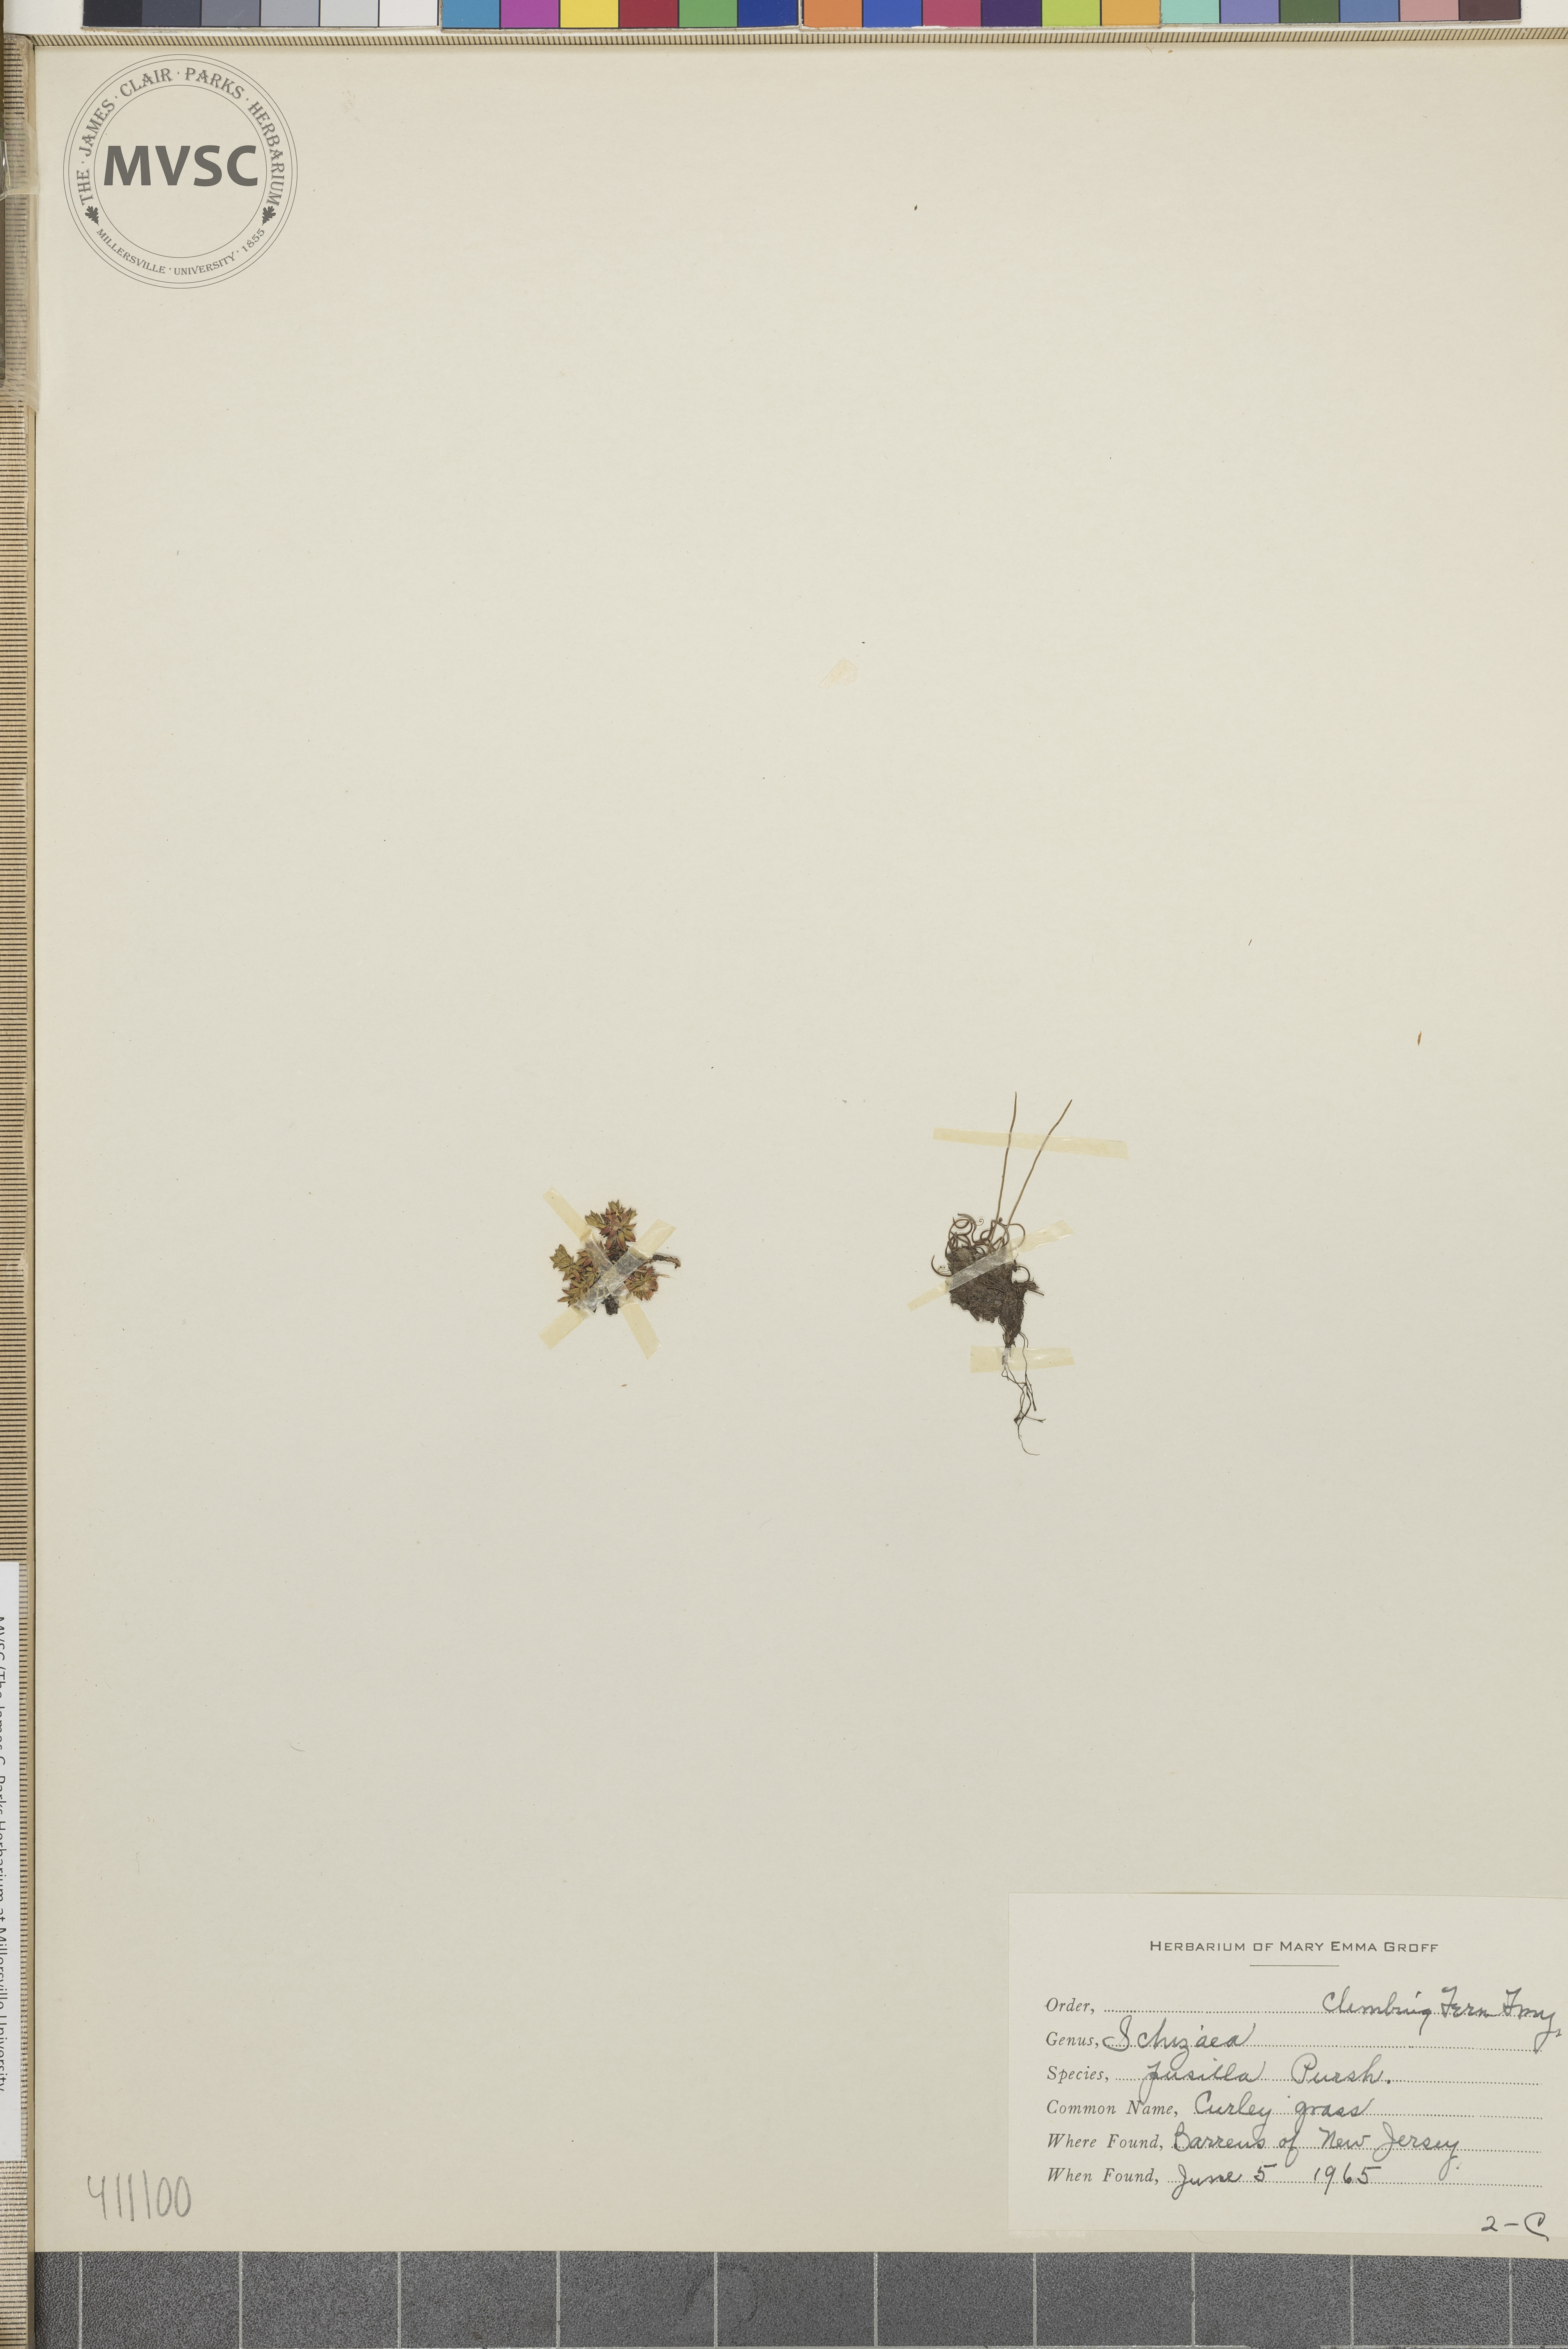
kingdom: Plantae
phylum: Tracheophyta
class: Polypodiopsida
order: Schizaeales
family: Schizaeaceae
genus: Schizaea
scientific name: Schizaea pusilla
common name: Curly-grass fern
